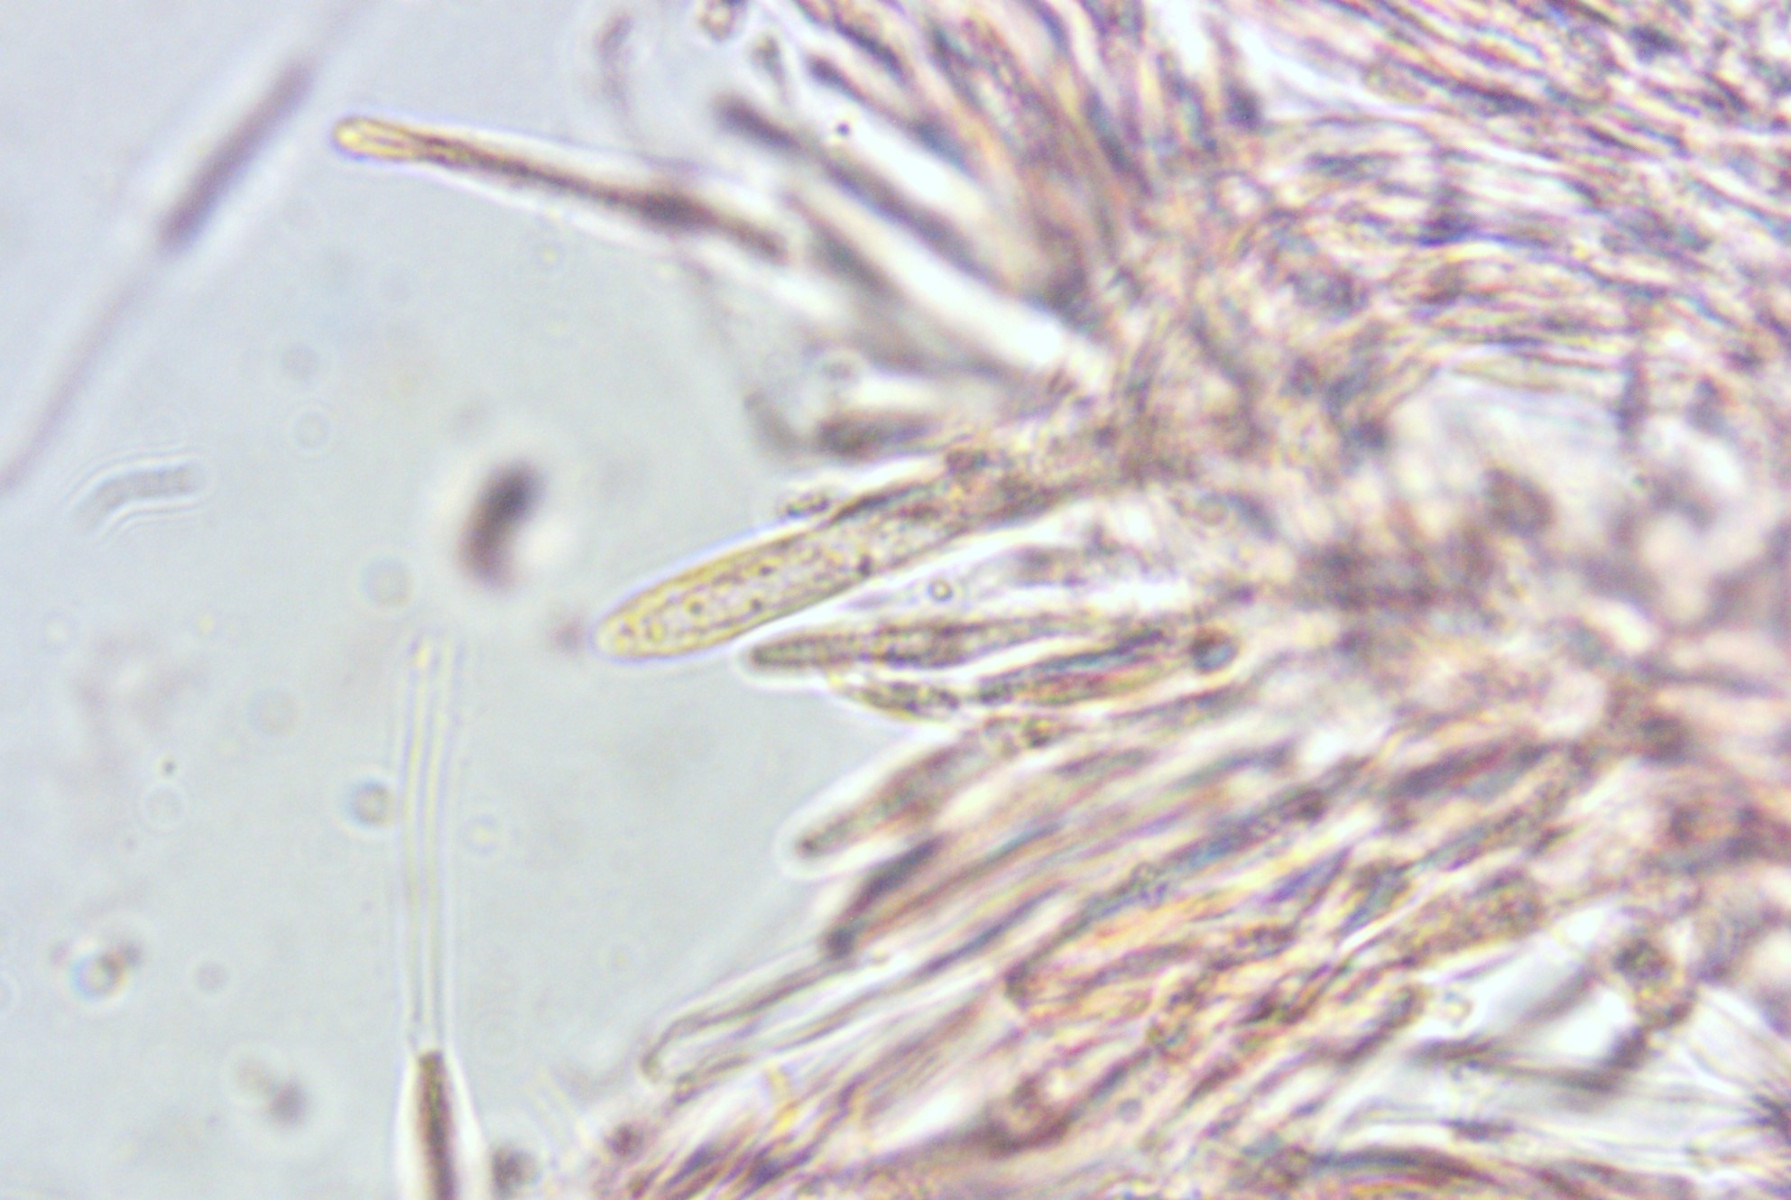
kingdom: Fungi
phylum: Ascomycota
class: Leotiomycetes
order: Helotiales
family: Helotiaceae
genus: Cyathicula
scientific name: Cyathicula cyathoidea
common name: pokal-stilkskive
